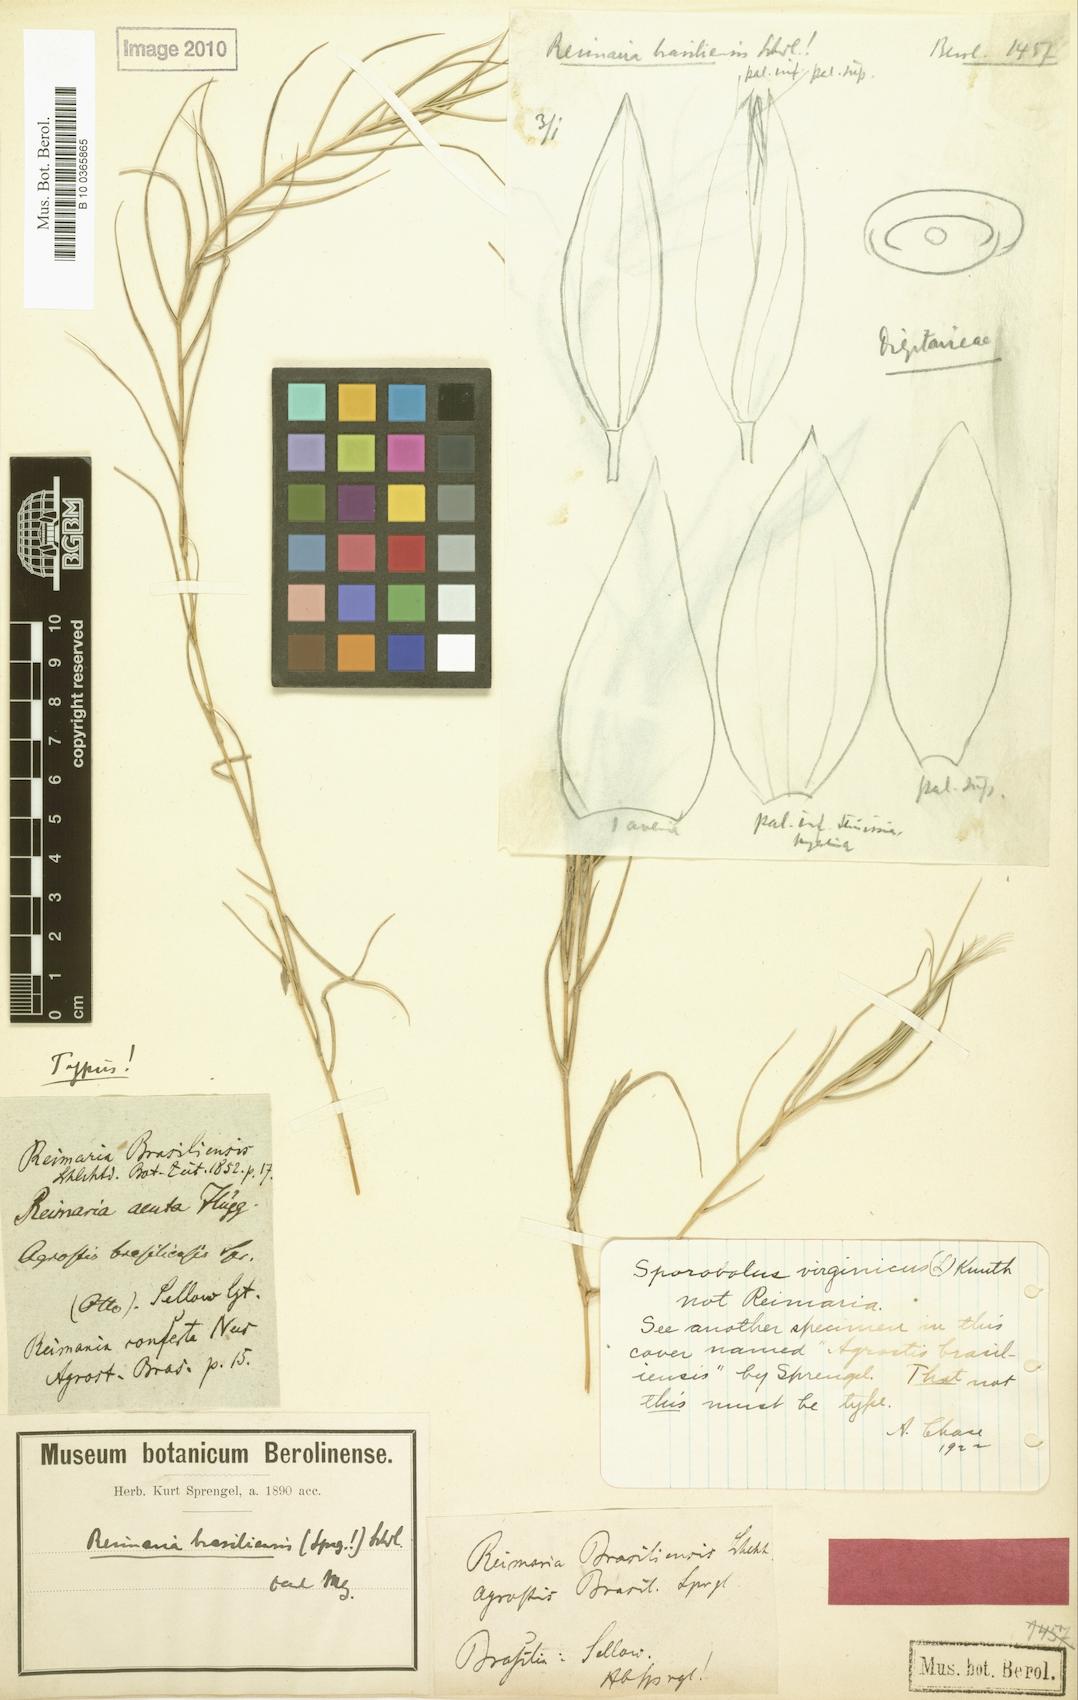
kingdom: Plantae
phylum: Tracheophyta
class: Liliopsida
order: Poales
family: Poaceae
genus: Paspalum
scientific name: Paspalum stagnophilum
